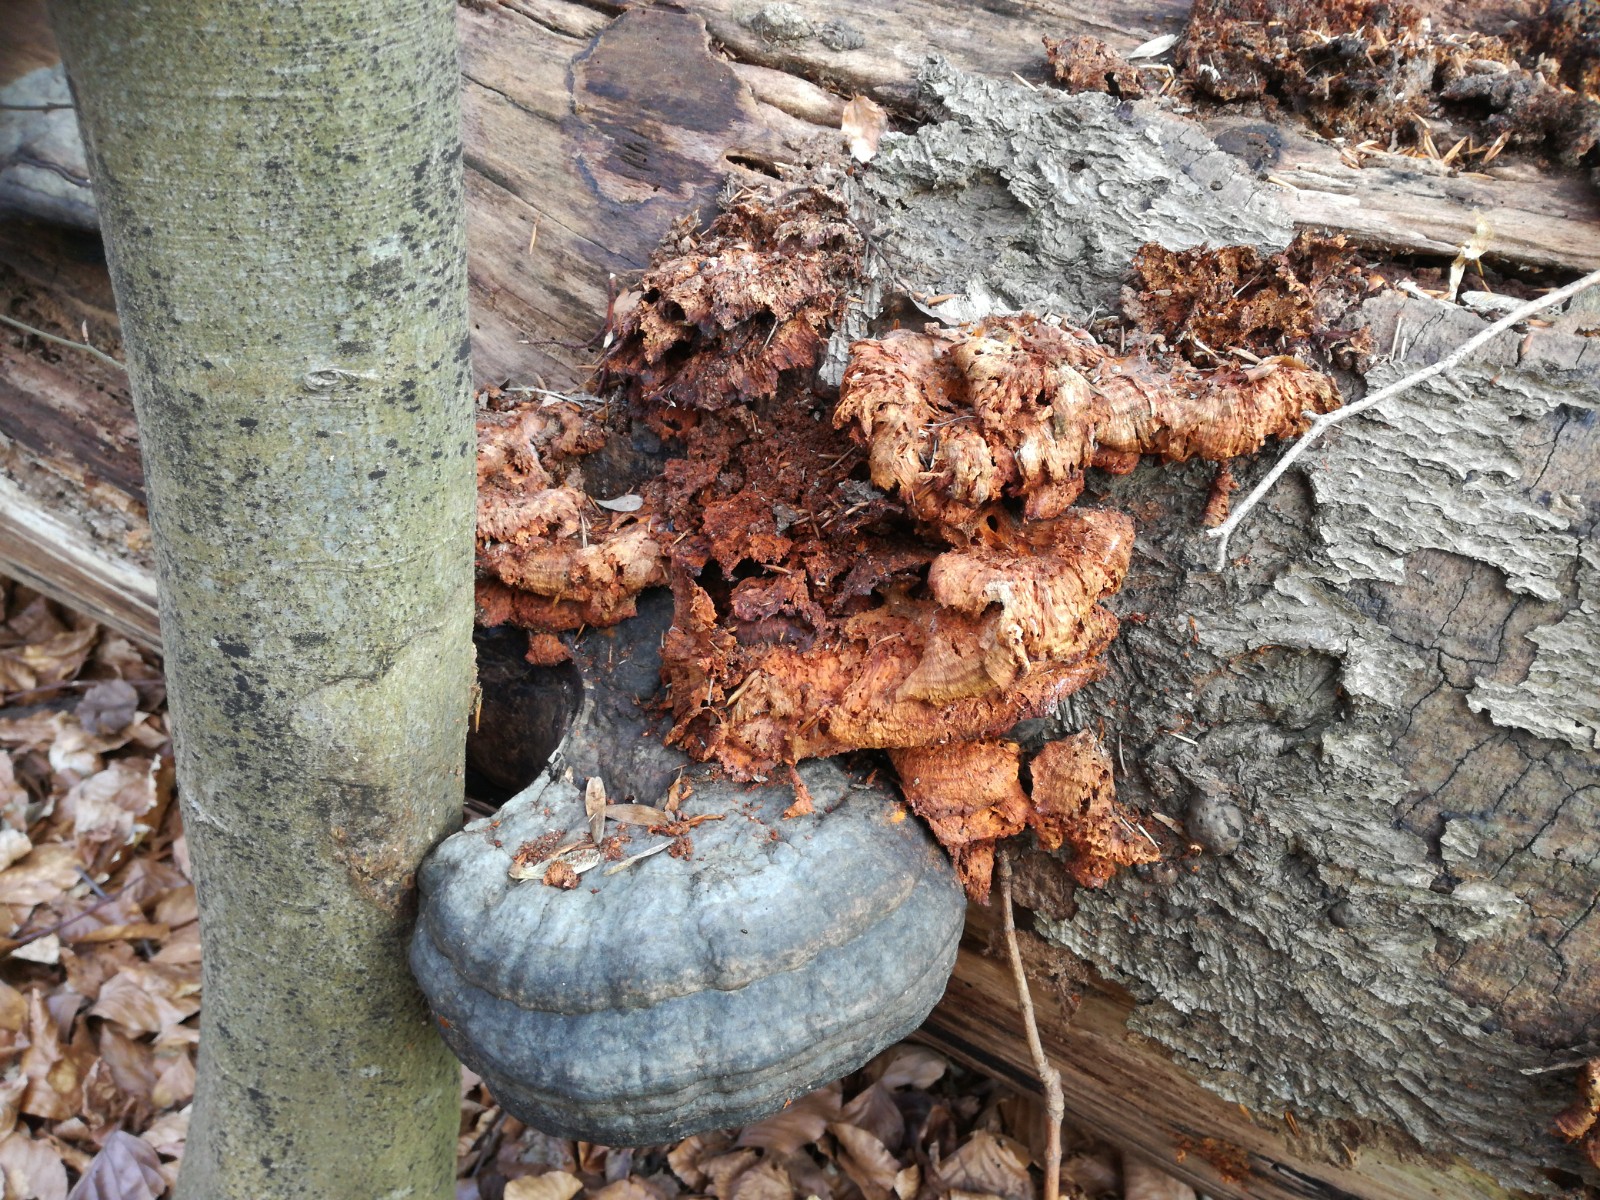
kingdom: Fungi
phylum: Basidiomycota
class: Agaricomycetes
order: Polyporales
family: Pycnoporellaceae
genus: Pycnoporellus
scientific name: Pycnoporellus fulgens
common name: flammeporesvamp
